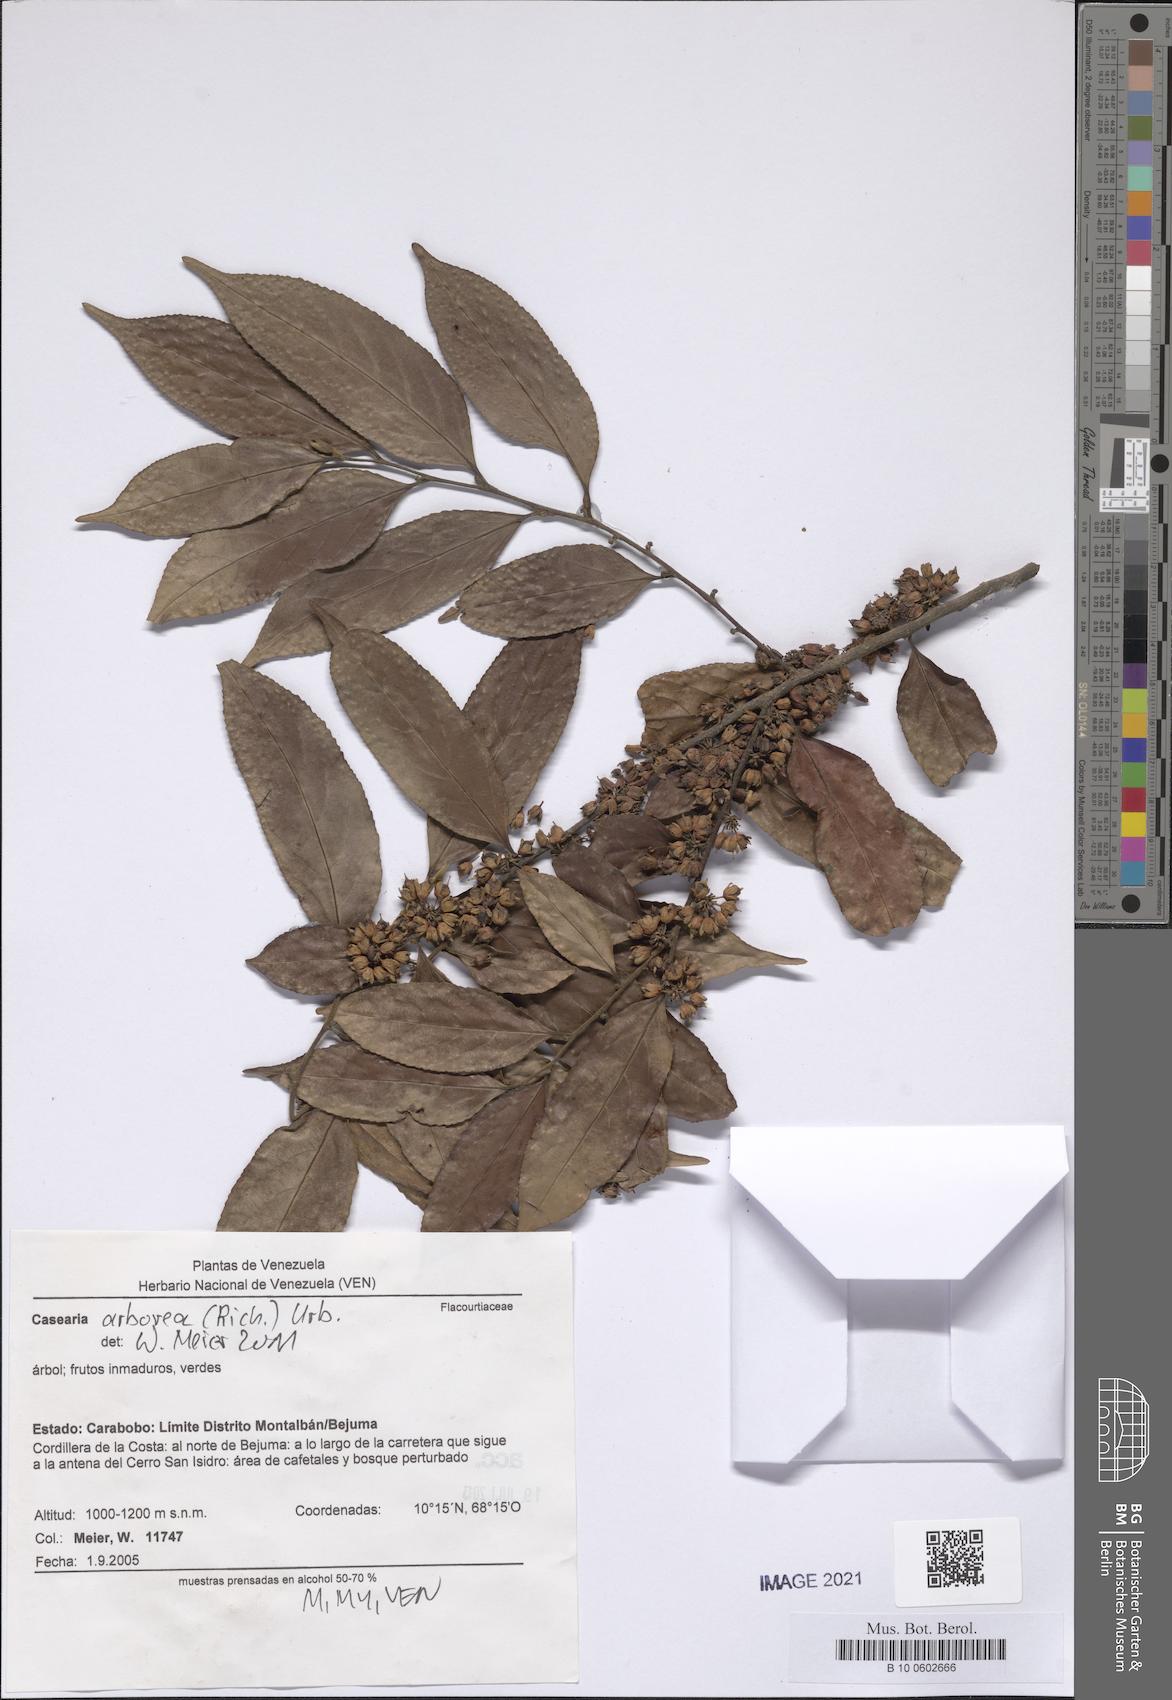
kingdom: Plantae
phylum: Tracheophyta
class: Magnoliopsida
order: Malpighiales
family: Salicaceae
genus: Casearia
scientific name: Casearia arborea
